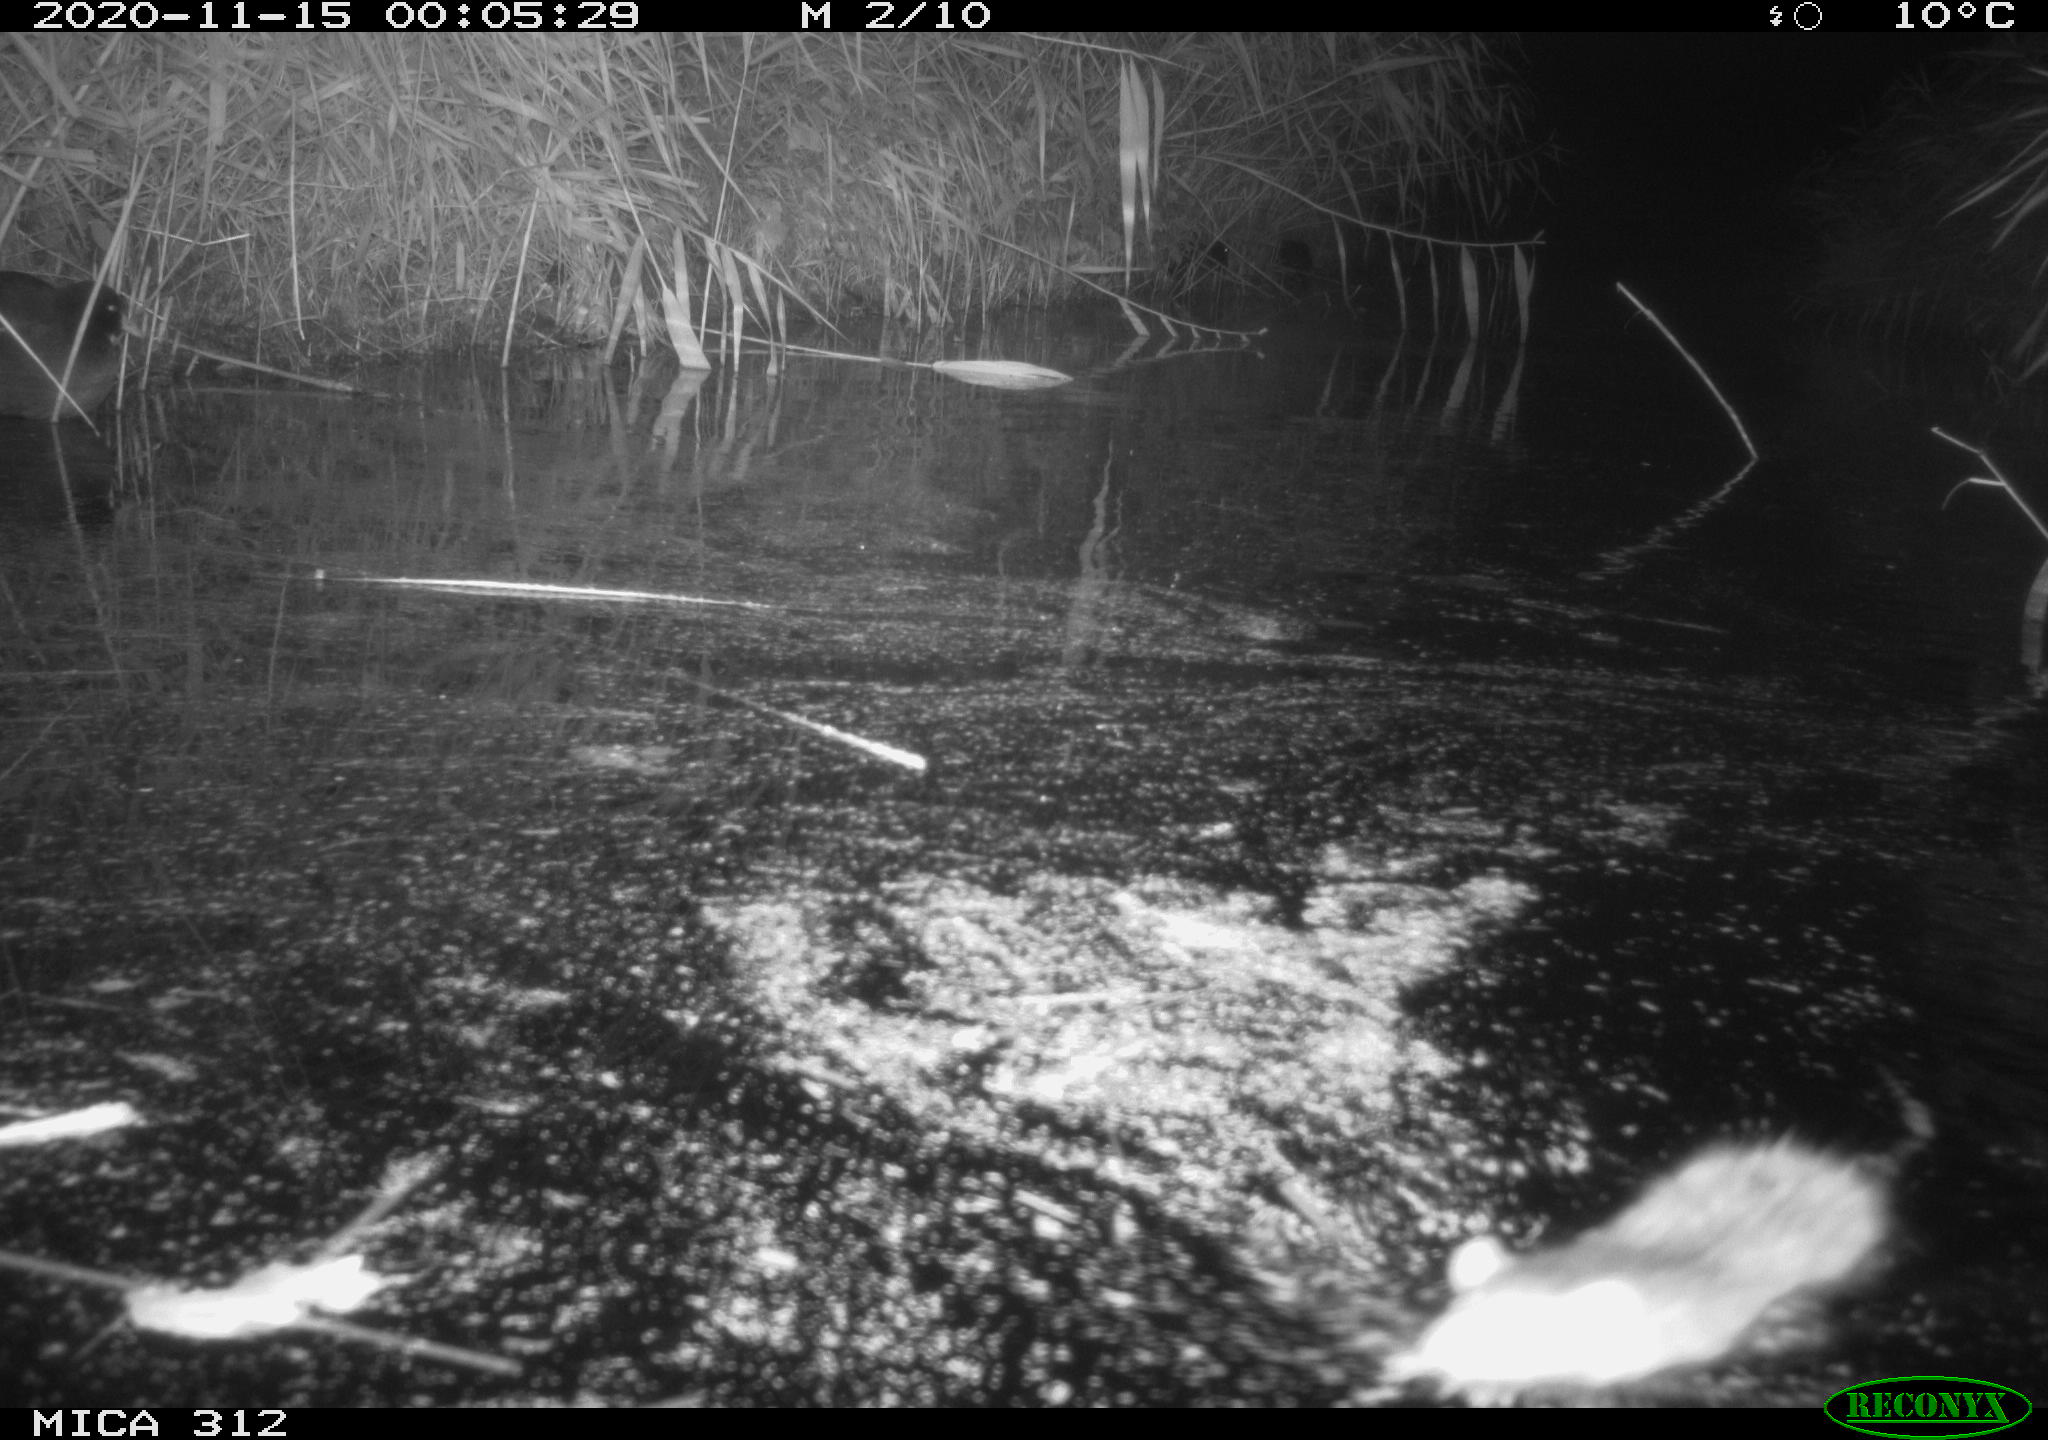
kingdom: Animalia
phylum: Chordata
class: Aves
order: Gruiformes
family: Rallidae
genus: Gallinula
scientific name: Gallinula chloropus
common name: Common moorhen
